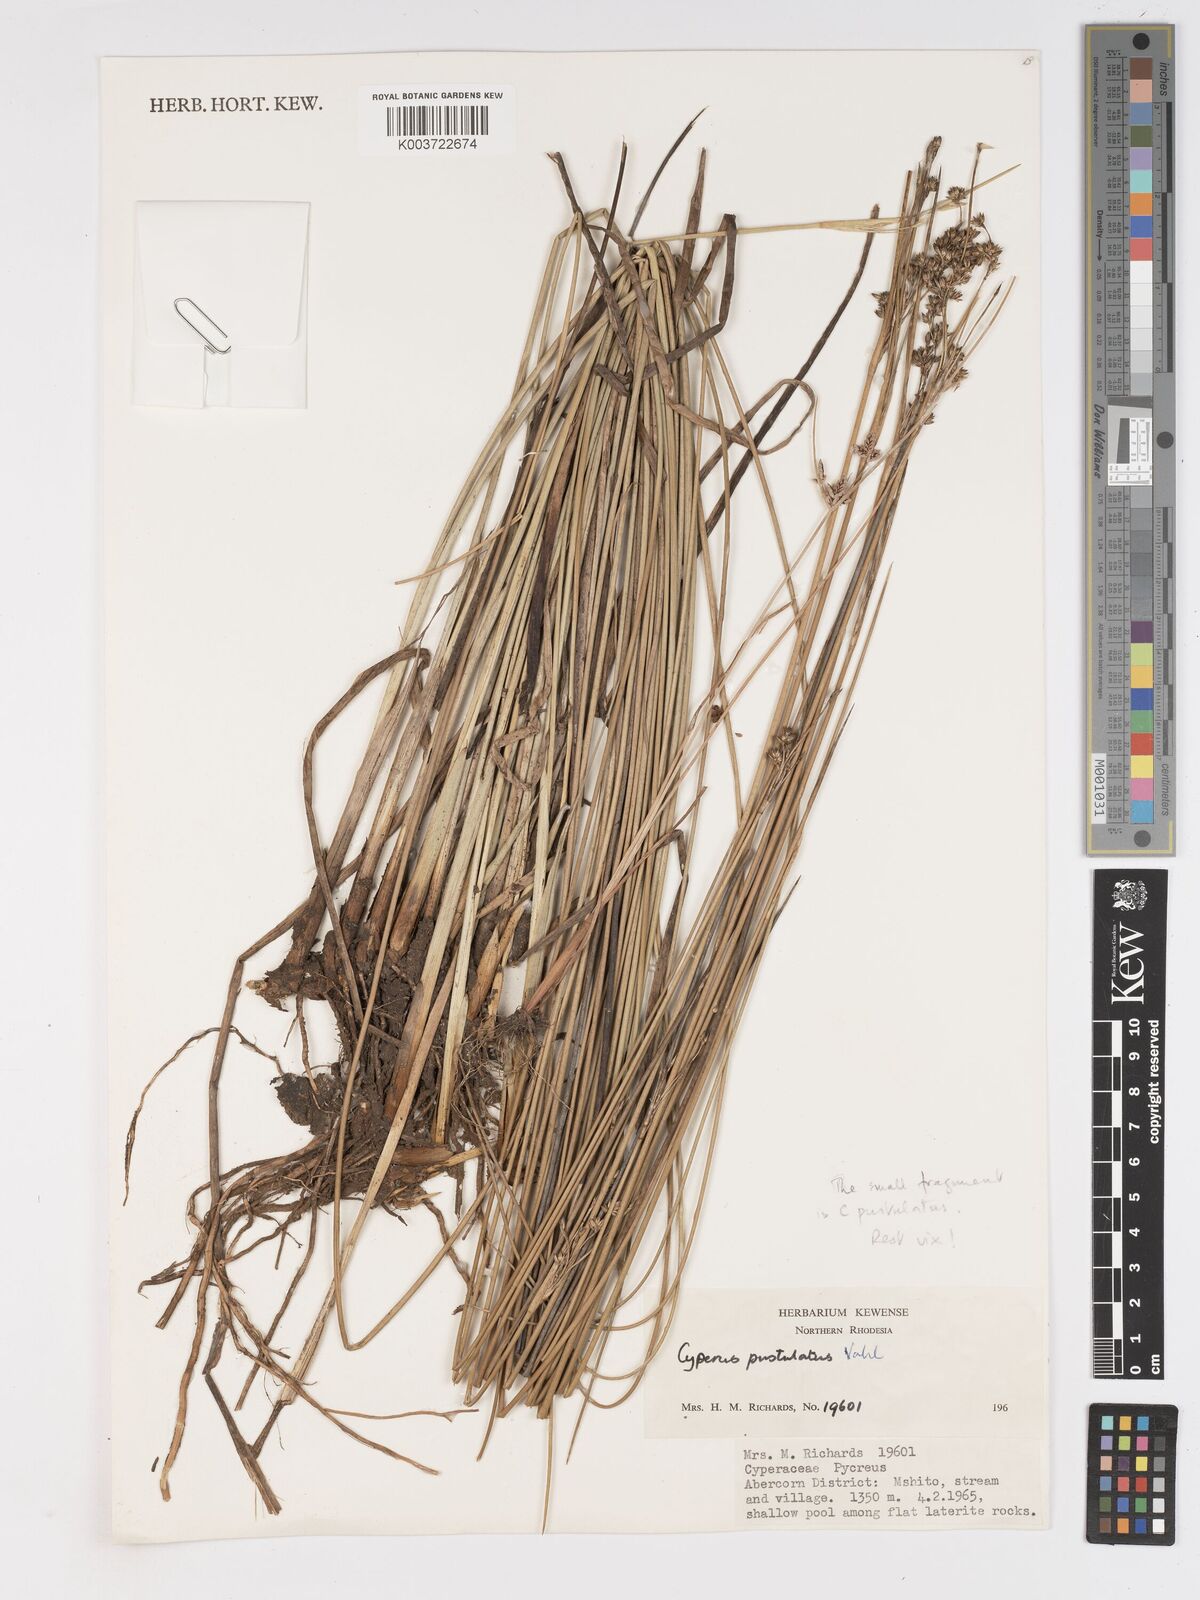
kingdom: Plantae
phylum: Tracheophyta
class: Liliopsida
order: Poales
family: Cyperaceae
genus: Cyperus
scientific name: Cyperus pustulatus
